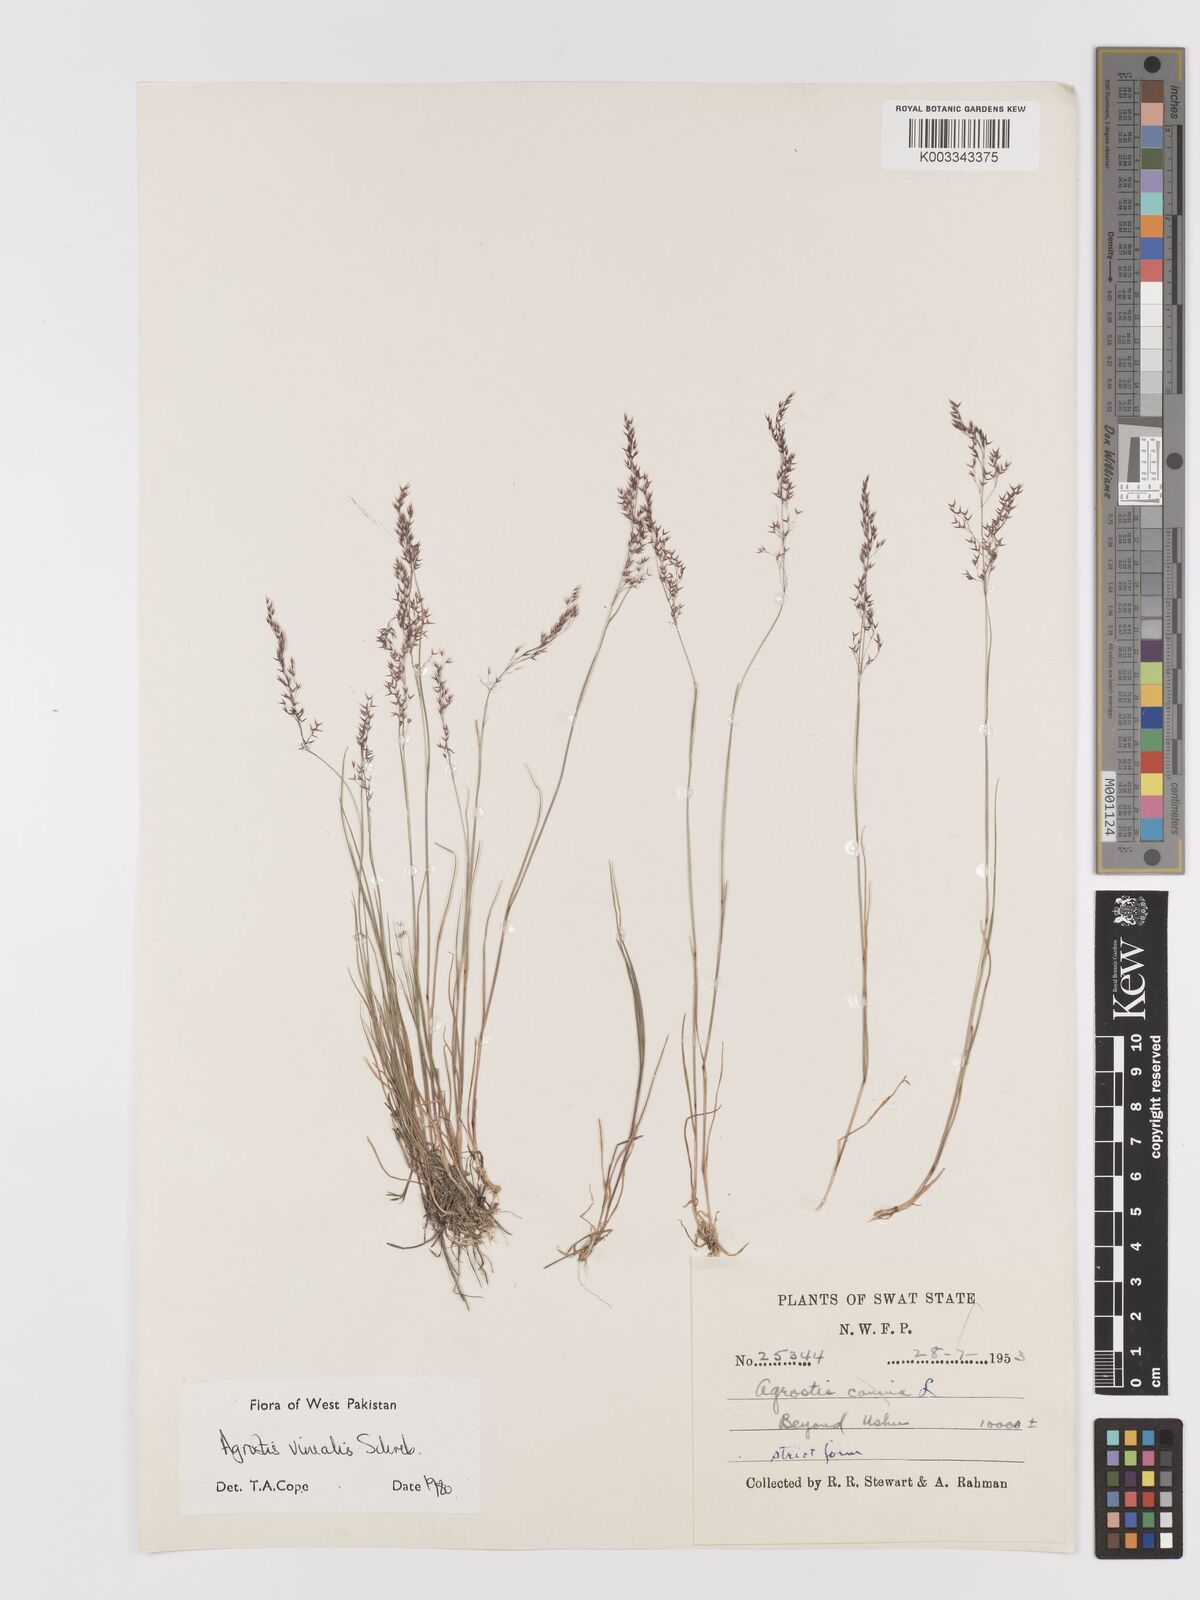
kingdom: Plantae
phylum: Tracheophyta
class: Liliopsida
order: Poales
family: Poaceae
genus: Agrostis
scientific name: Agrostis vinealis
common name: Brown bent
